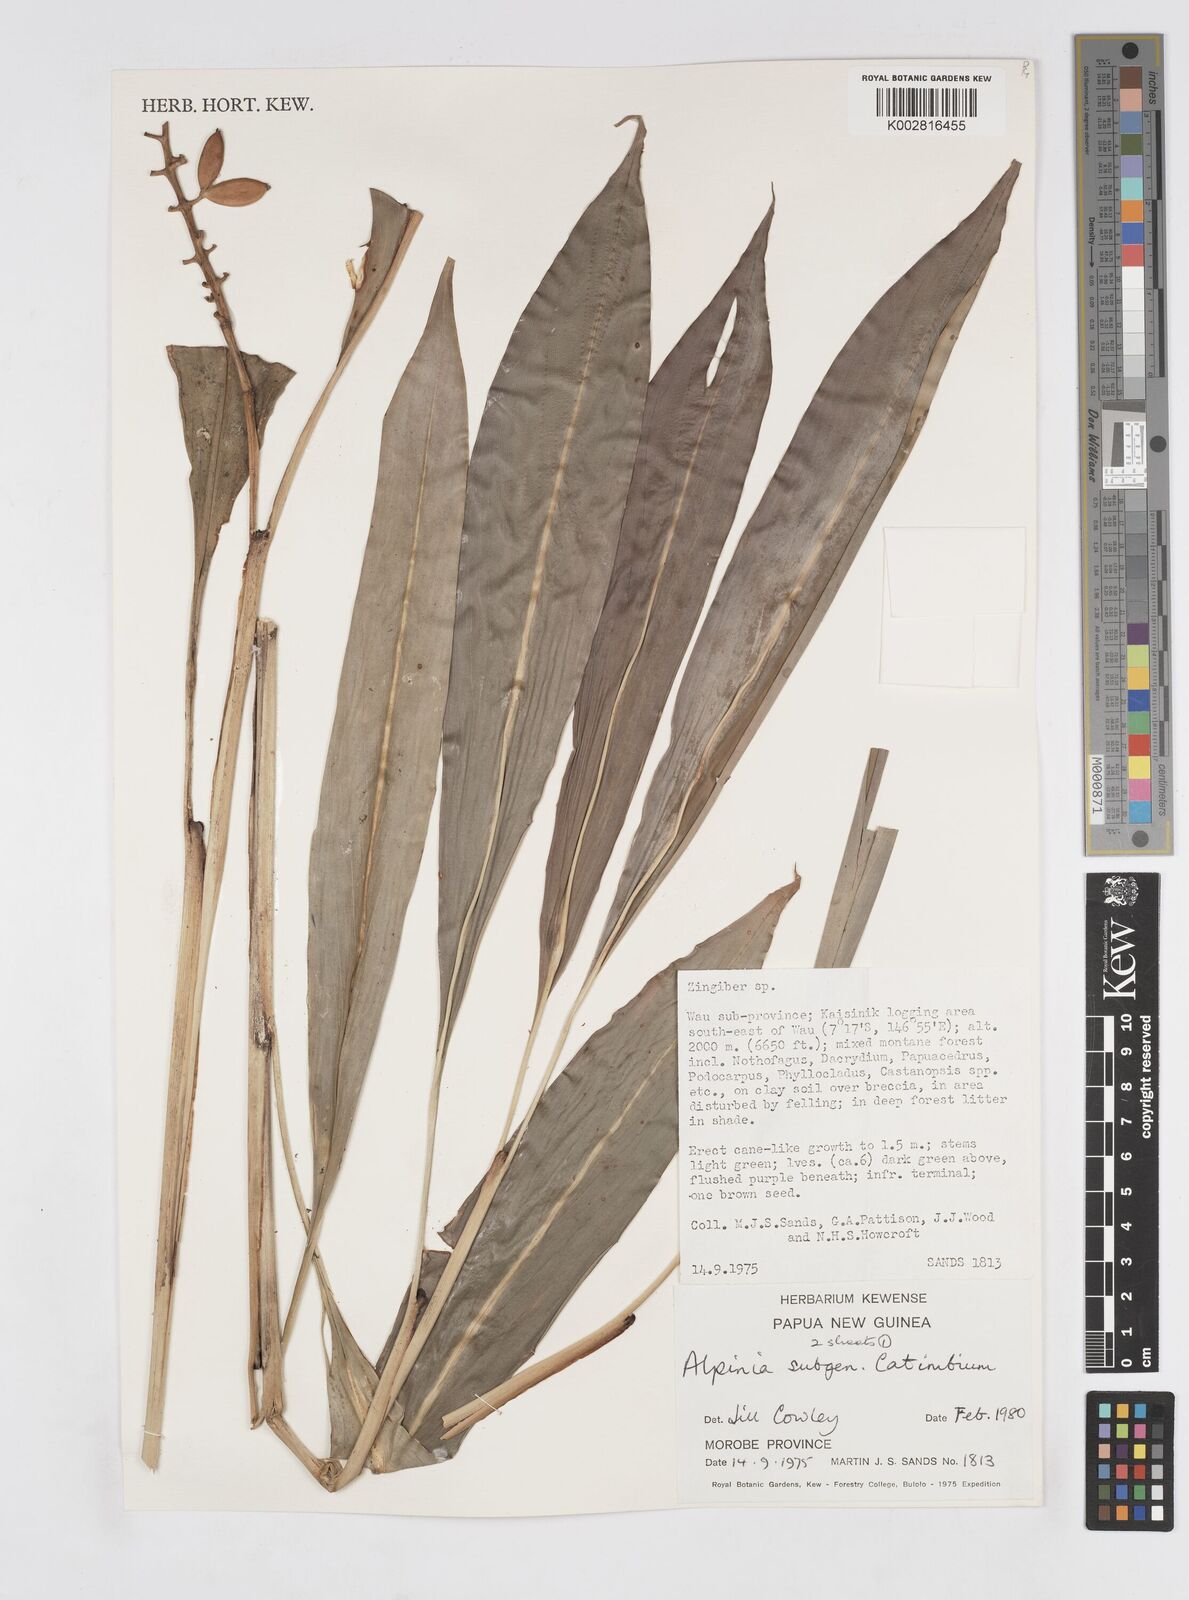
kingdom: Plantae
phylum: Tracheophyta
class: Liliopsida
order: Zingiberales
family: Zingiberaceae
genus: Alpinia
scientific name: Alpinia
